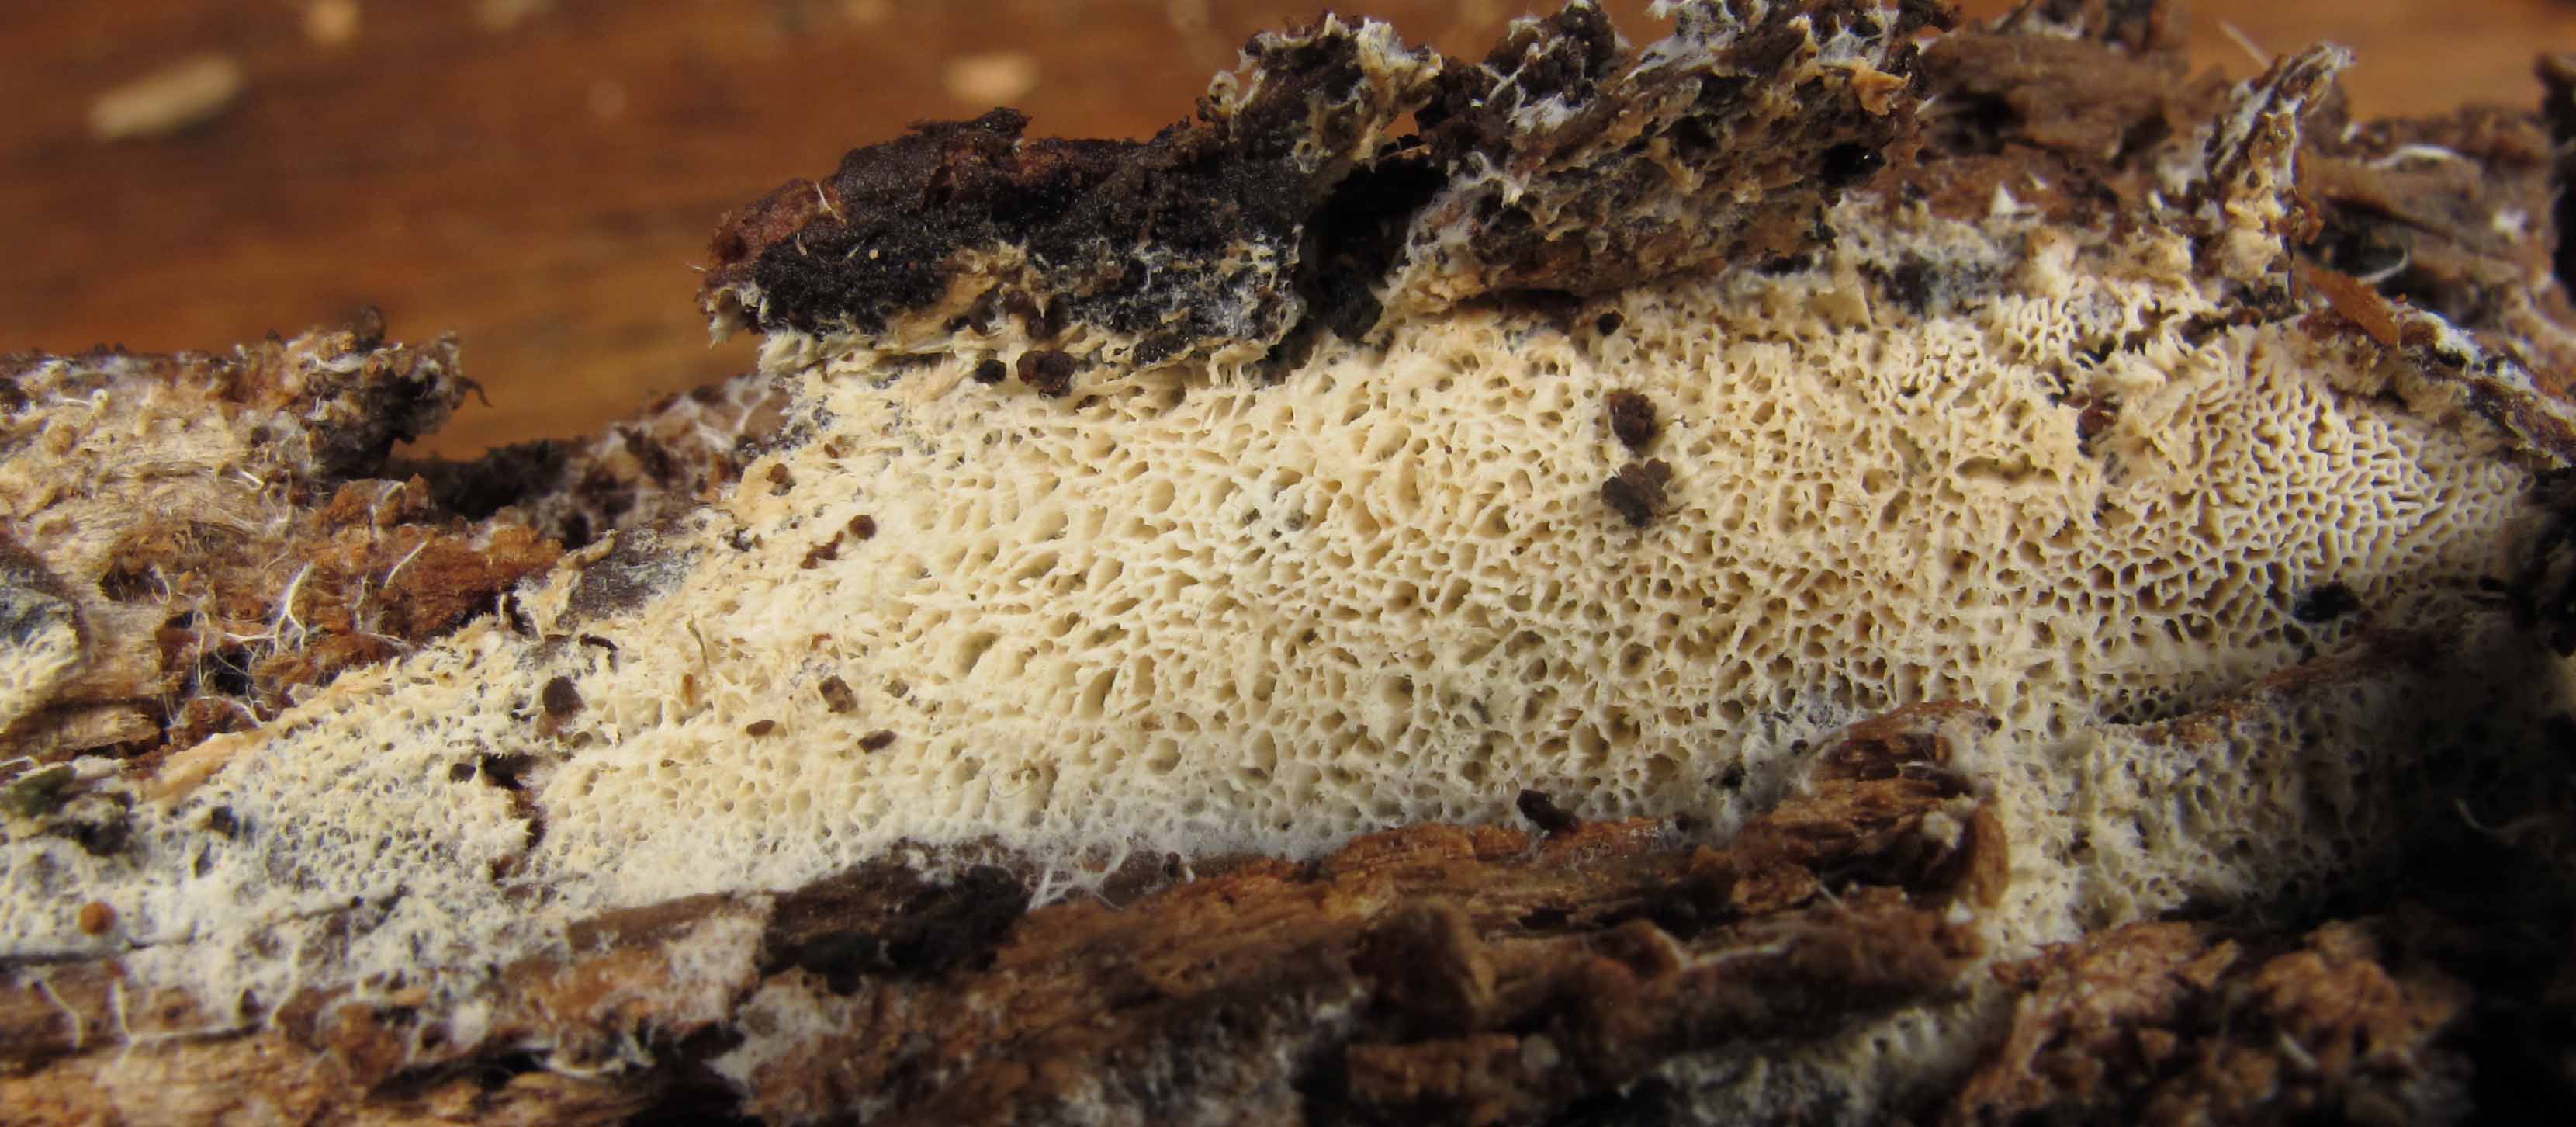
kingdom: Fungi
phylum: Basidiomycota
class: Agaricomycetes
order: Trechisporales
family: Sistotremataceae
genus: Trechispora
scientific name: Trechispora mollusca
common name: pyramide-vathinde
